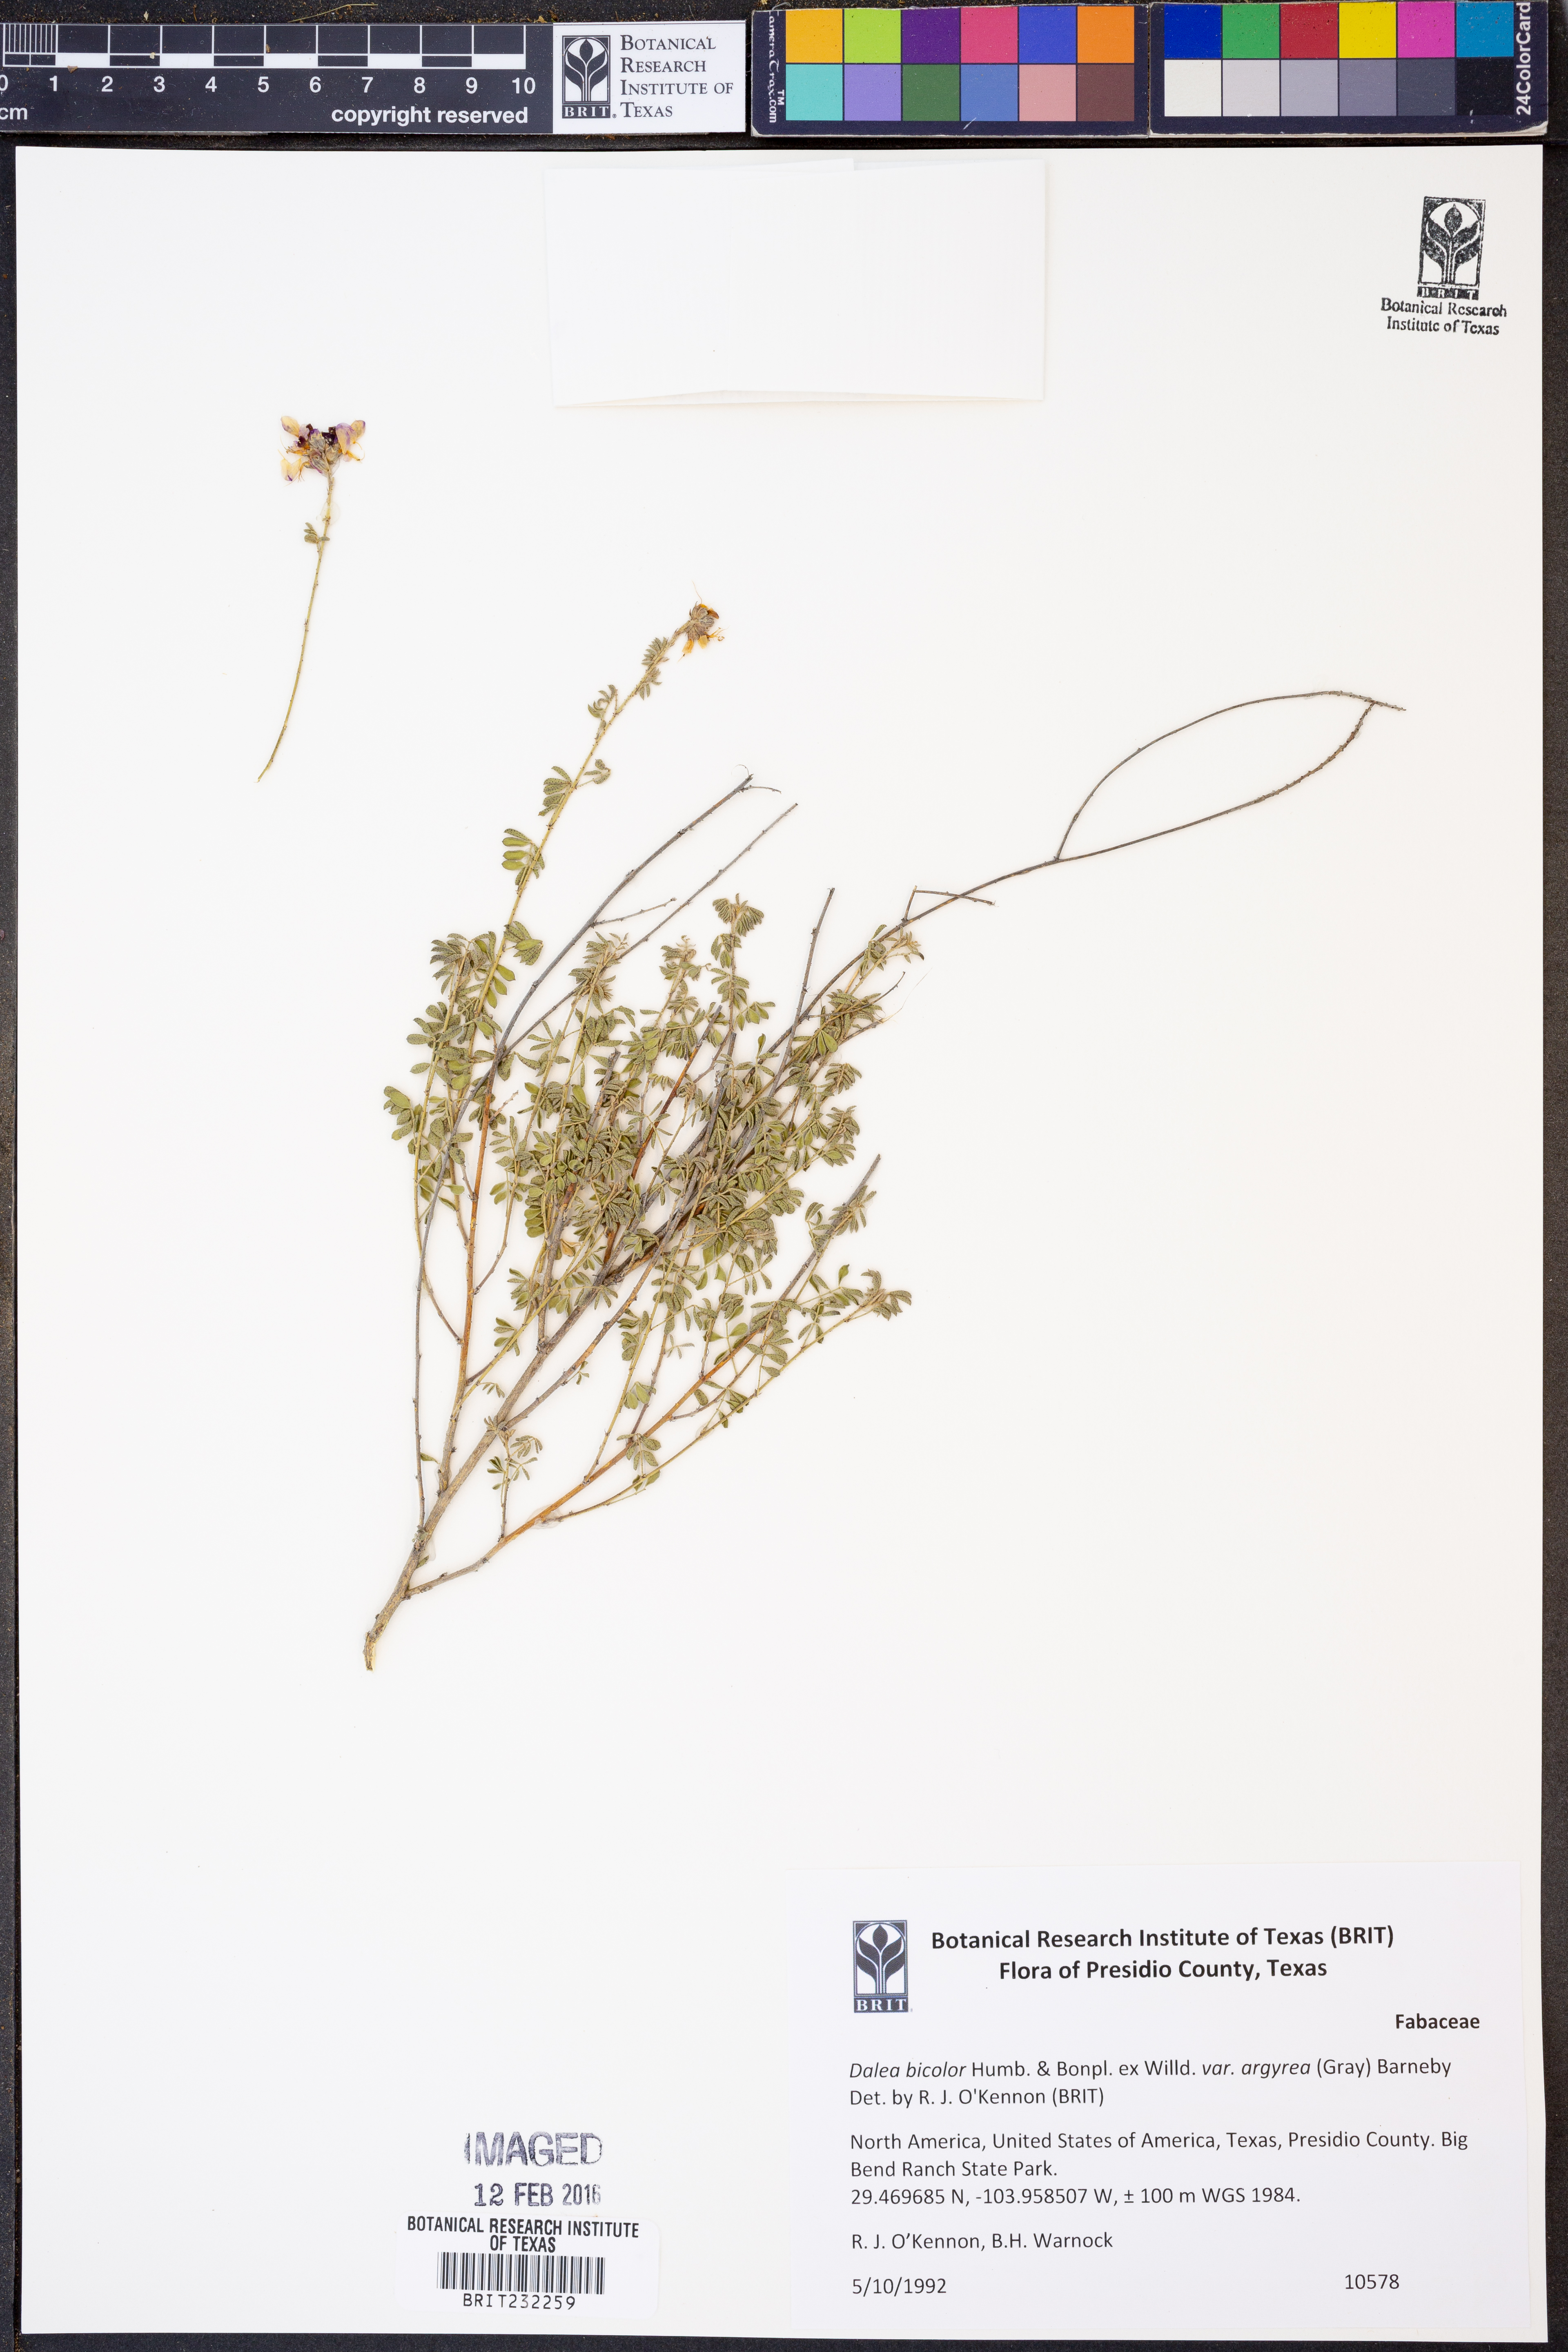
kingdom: Plantae
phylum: Tracheophyta
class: Magnoliopsida
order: Fabales
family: Fabaceae
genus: Dalea
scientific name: Dalea bicolor
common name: Silver prairie-clover
